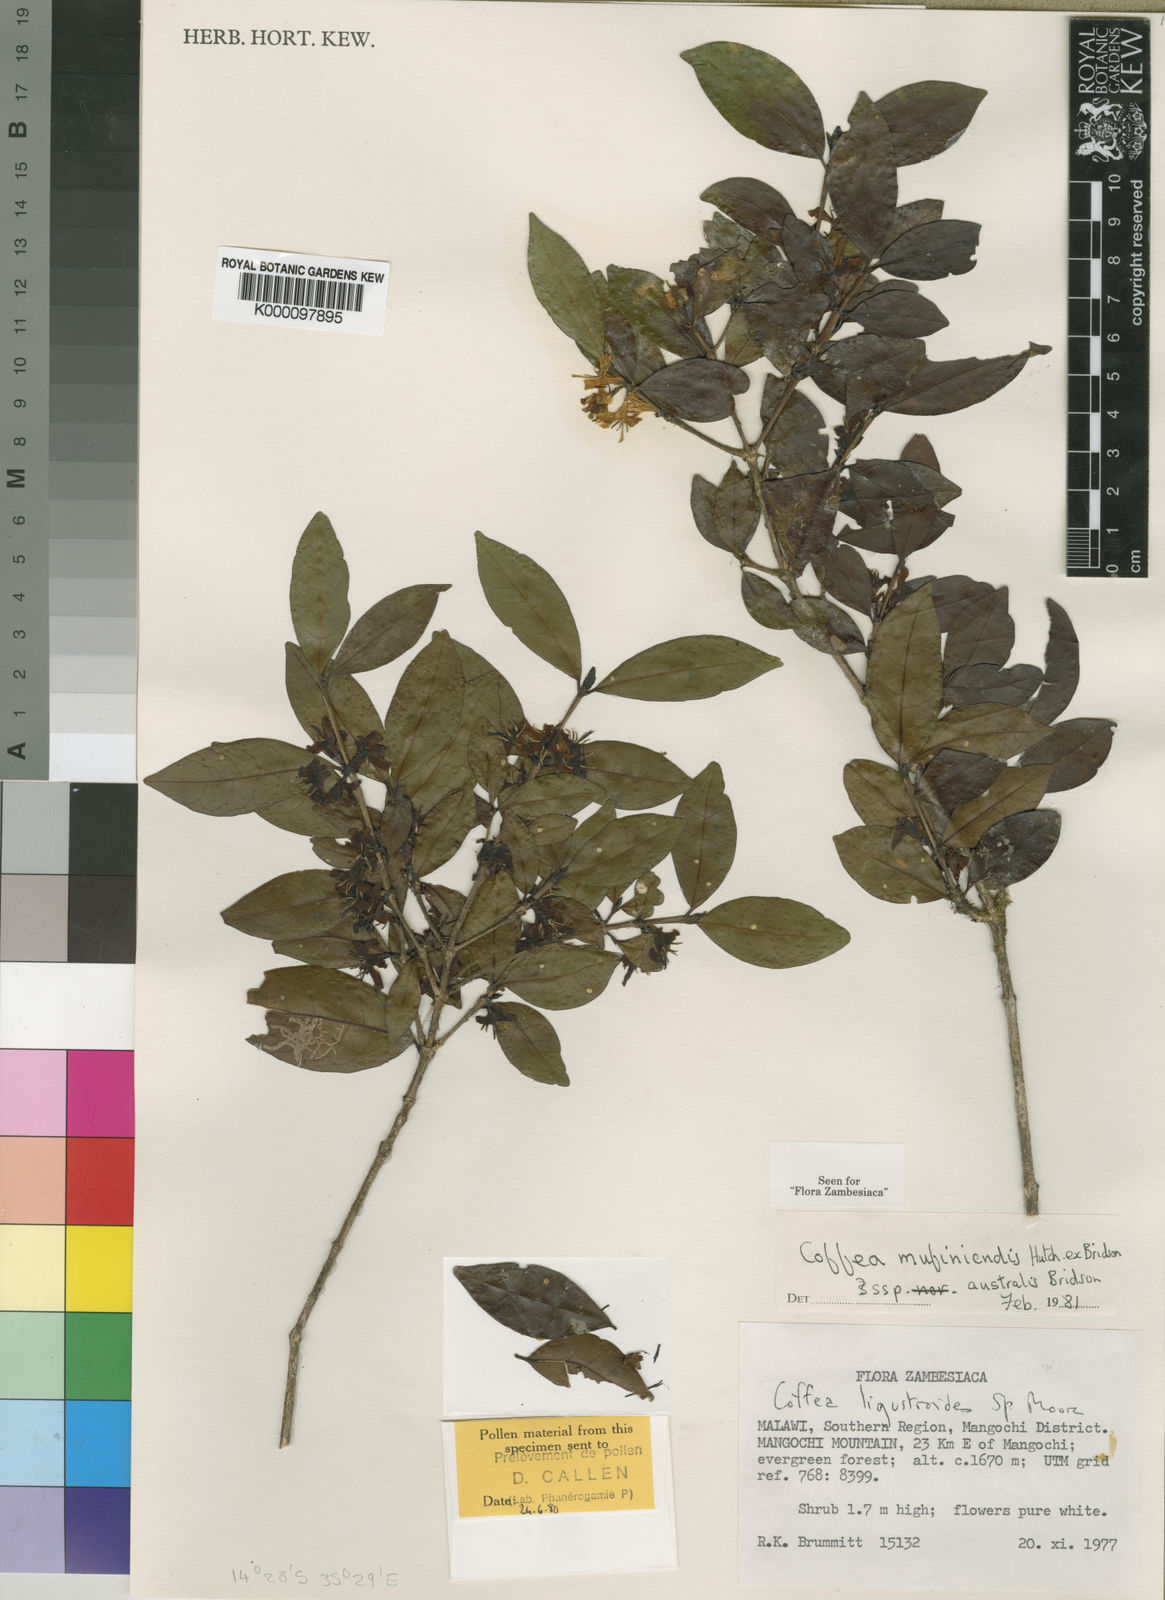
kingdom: Plantae
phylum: Tracheophyta
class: Magnoliopsida
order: Gentianales
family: Rubiaceae
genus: Coffea
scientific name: Coffea mufindiensis
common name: Wild coffee
